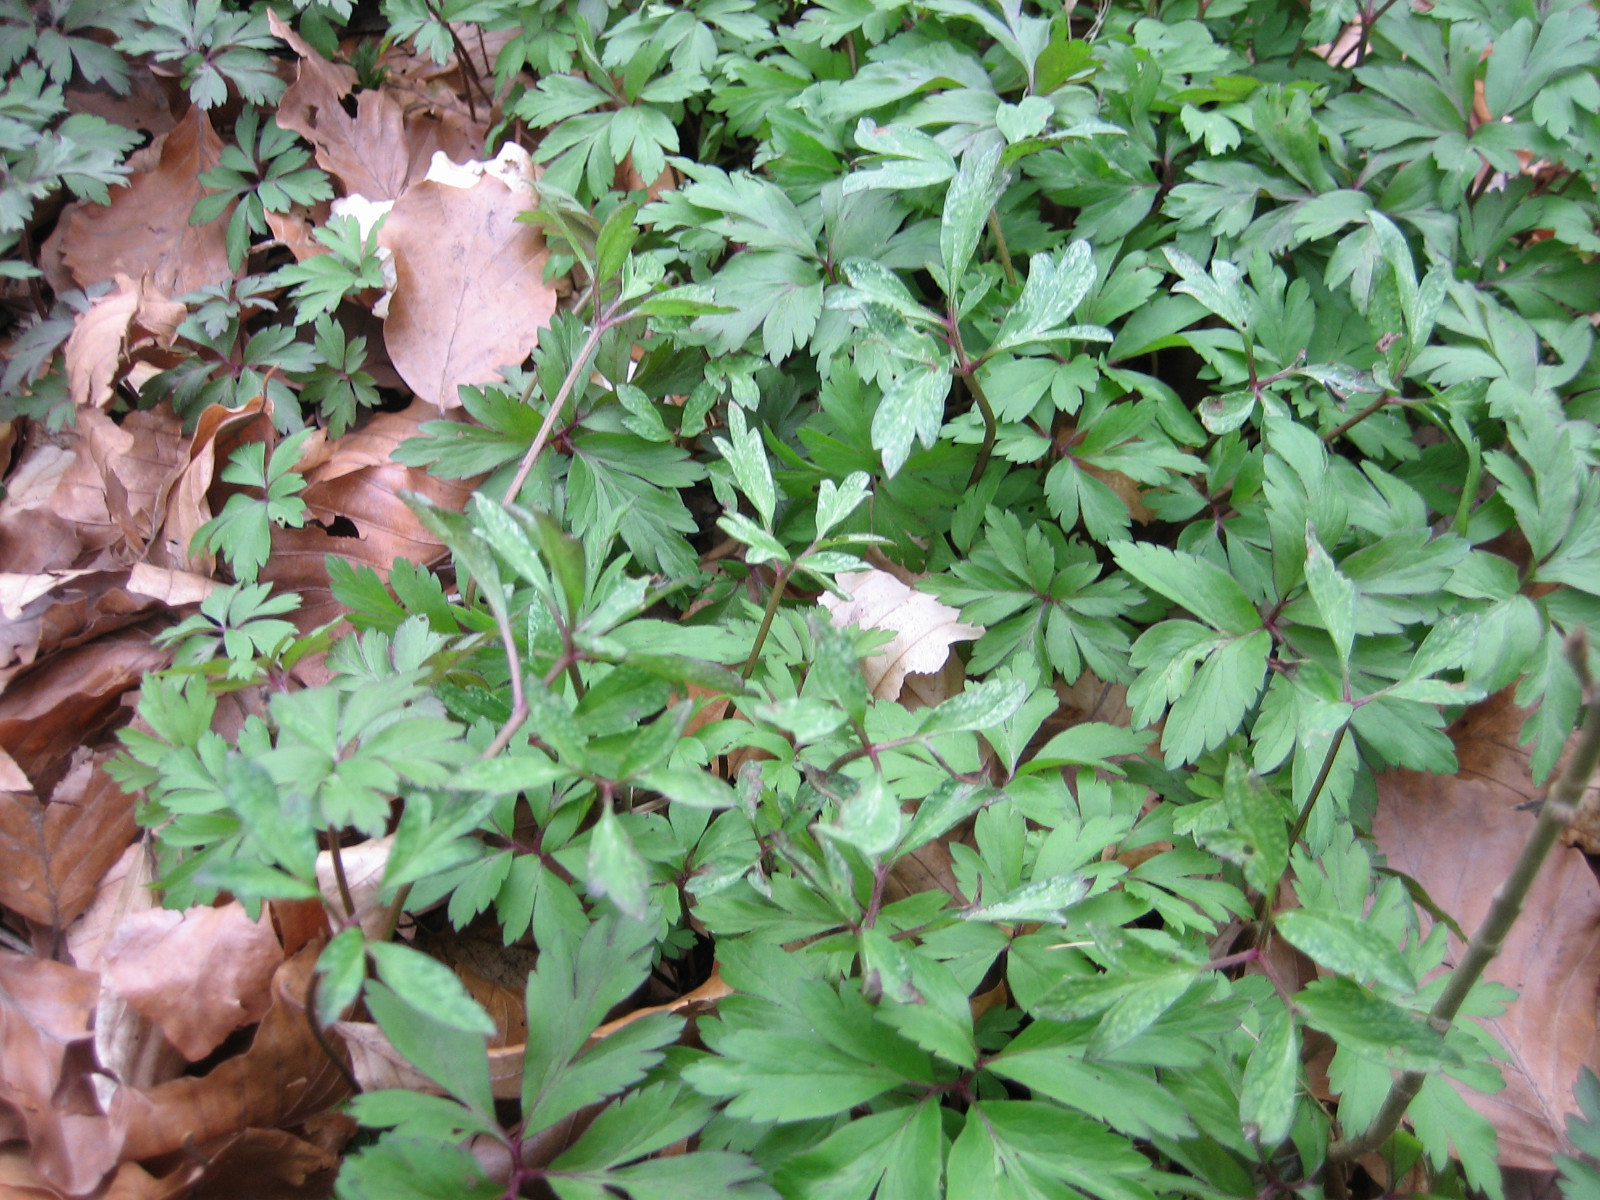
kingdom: Fungi
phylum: Basidiomycota
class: Pucciniomycetes
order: Pucciniales
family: Tranzscheliaceae
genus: Tranzschelia
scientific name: Tranzschelia anemones
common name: anemone-knæksporerust
